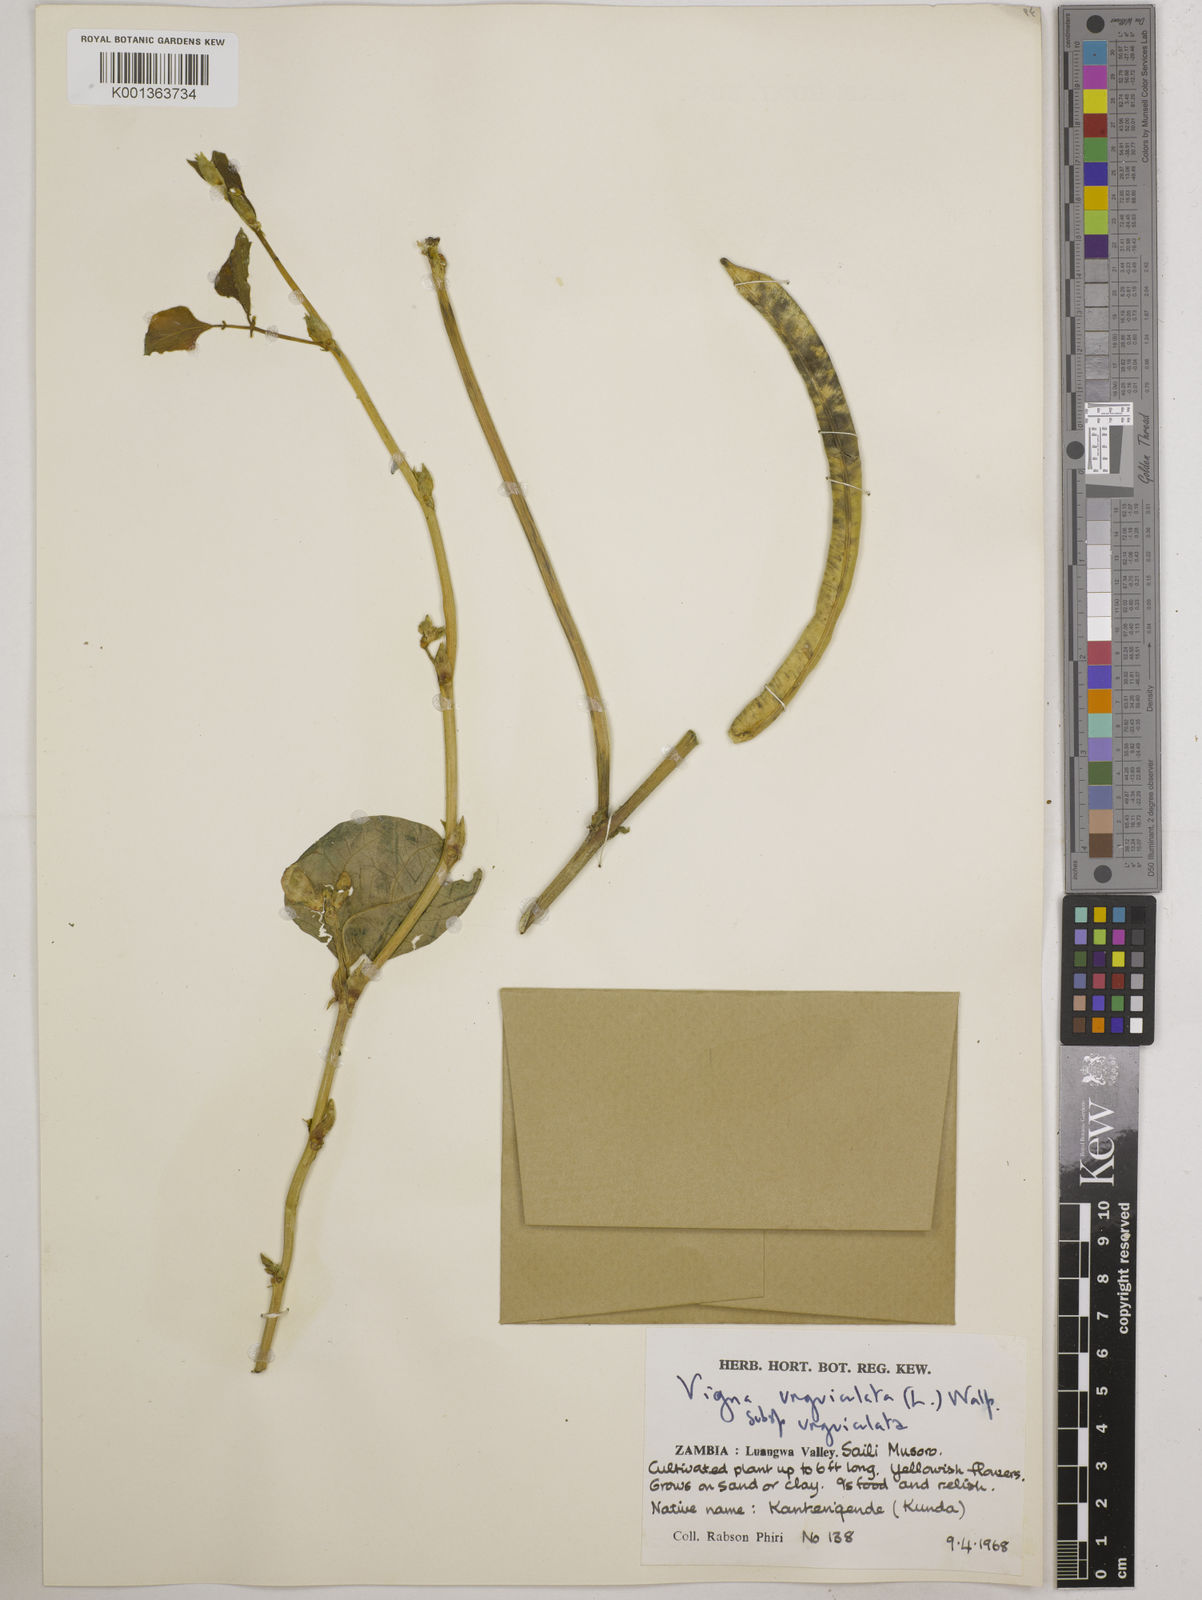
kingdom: Plantae
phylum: Tracheophyta
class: Magnoliopsida
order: Fabales
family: Fabaceae
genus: Vigna
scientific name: Vigna unguiculata
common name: Cowpea
